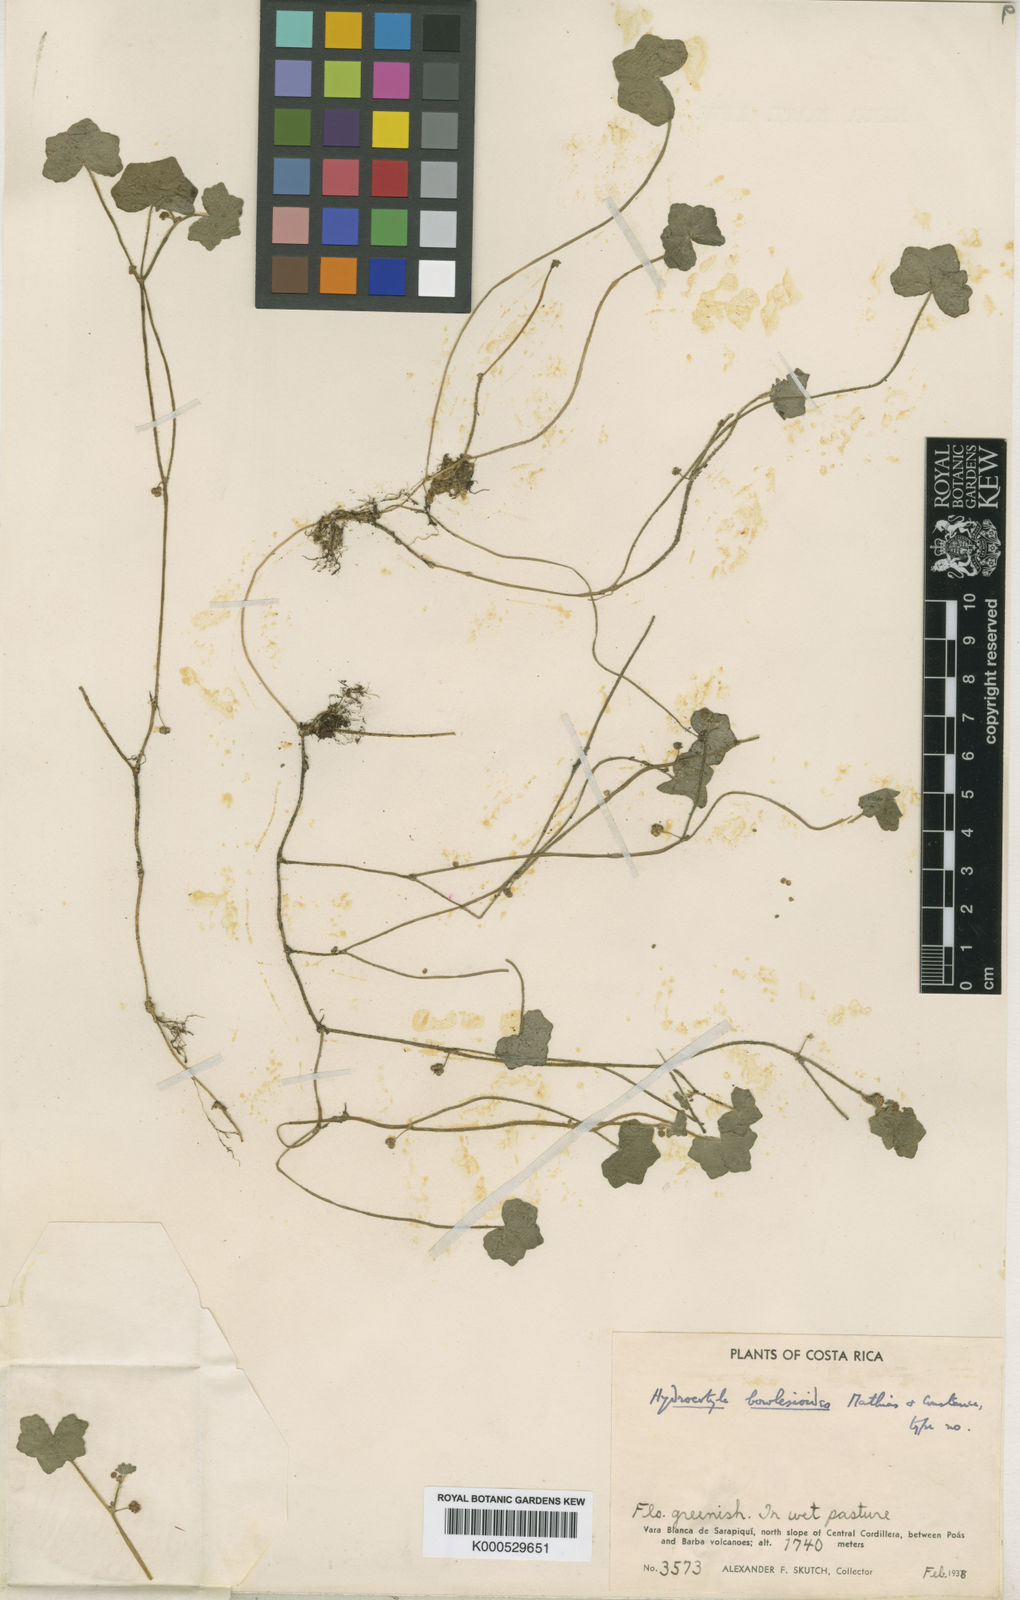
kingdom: Plantae
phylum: Tracheophyta
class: Magnoliopsida
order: Apiales
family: Araliaceae
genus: Hydrocotyle
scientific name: Hydrocotyle bowlesioides
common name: Largeleaf marshpennywort
